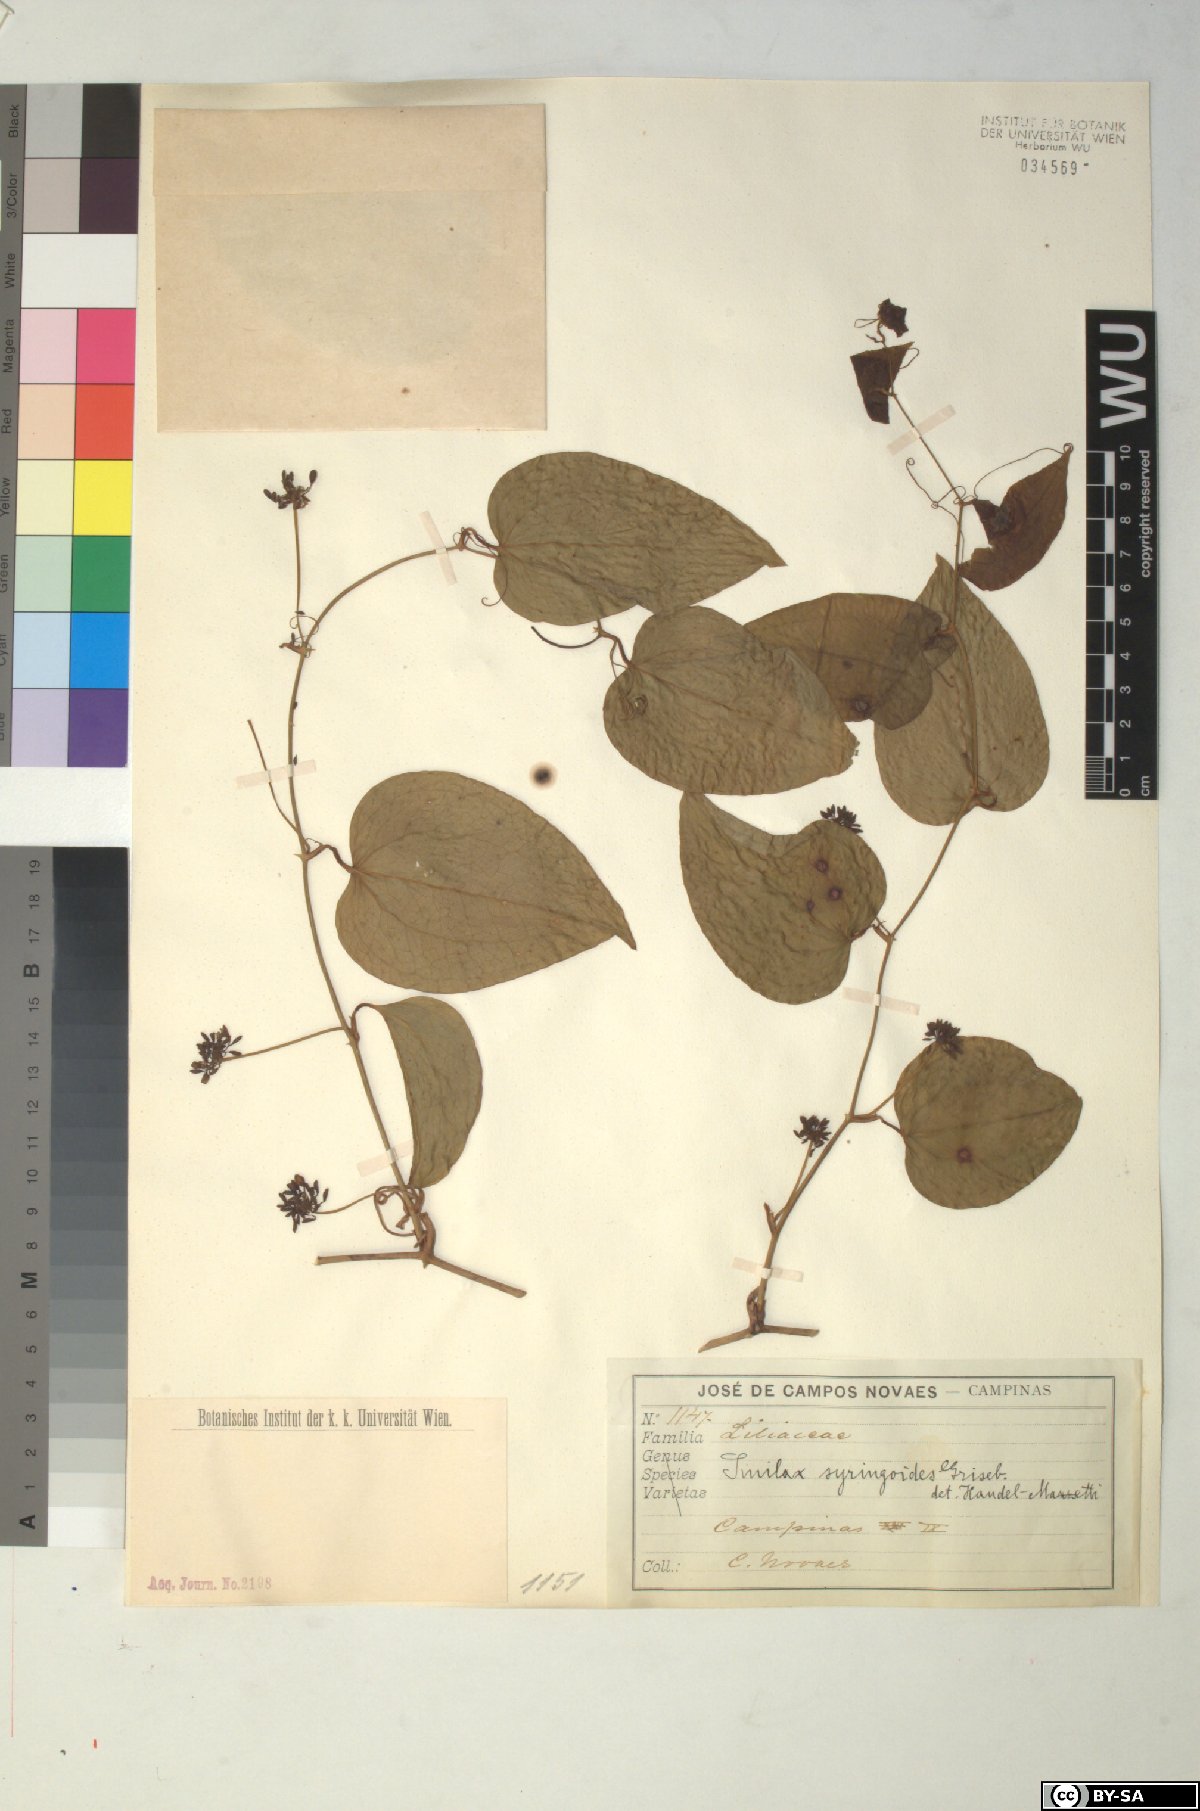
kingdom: Plantae
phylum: Tracheophyta
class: Liliopsida
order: Liliales
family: Smilacaceae
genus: Smilax
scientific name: Smilax fluminensis
